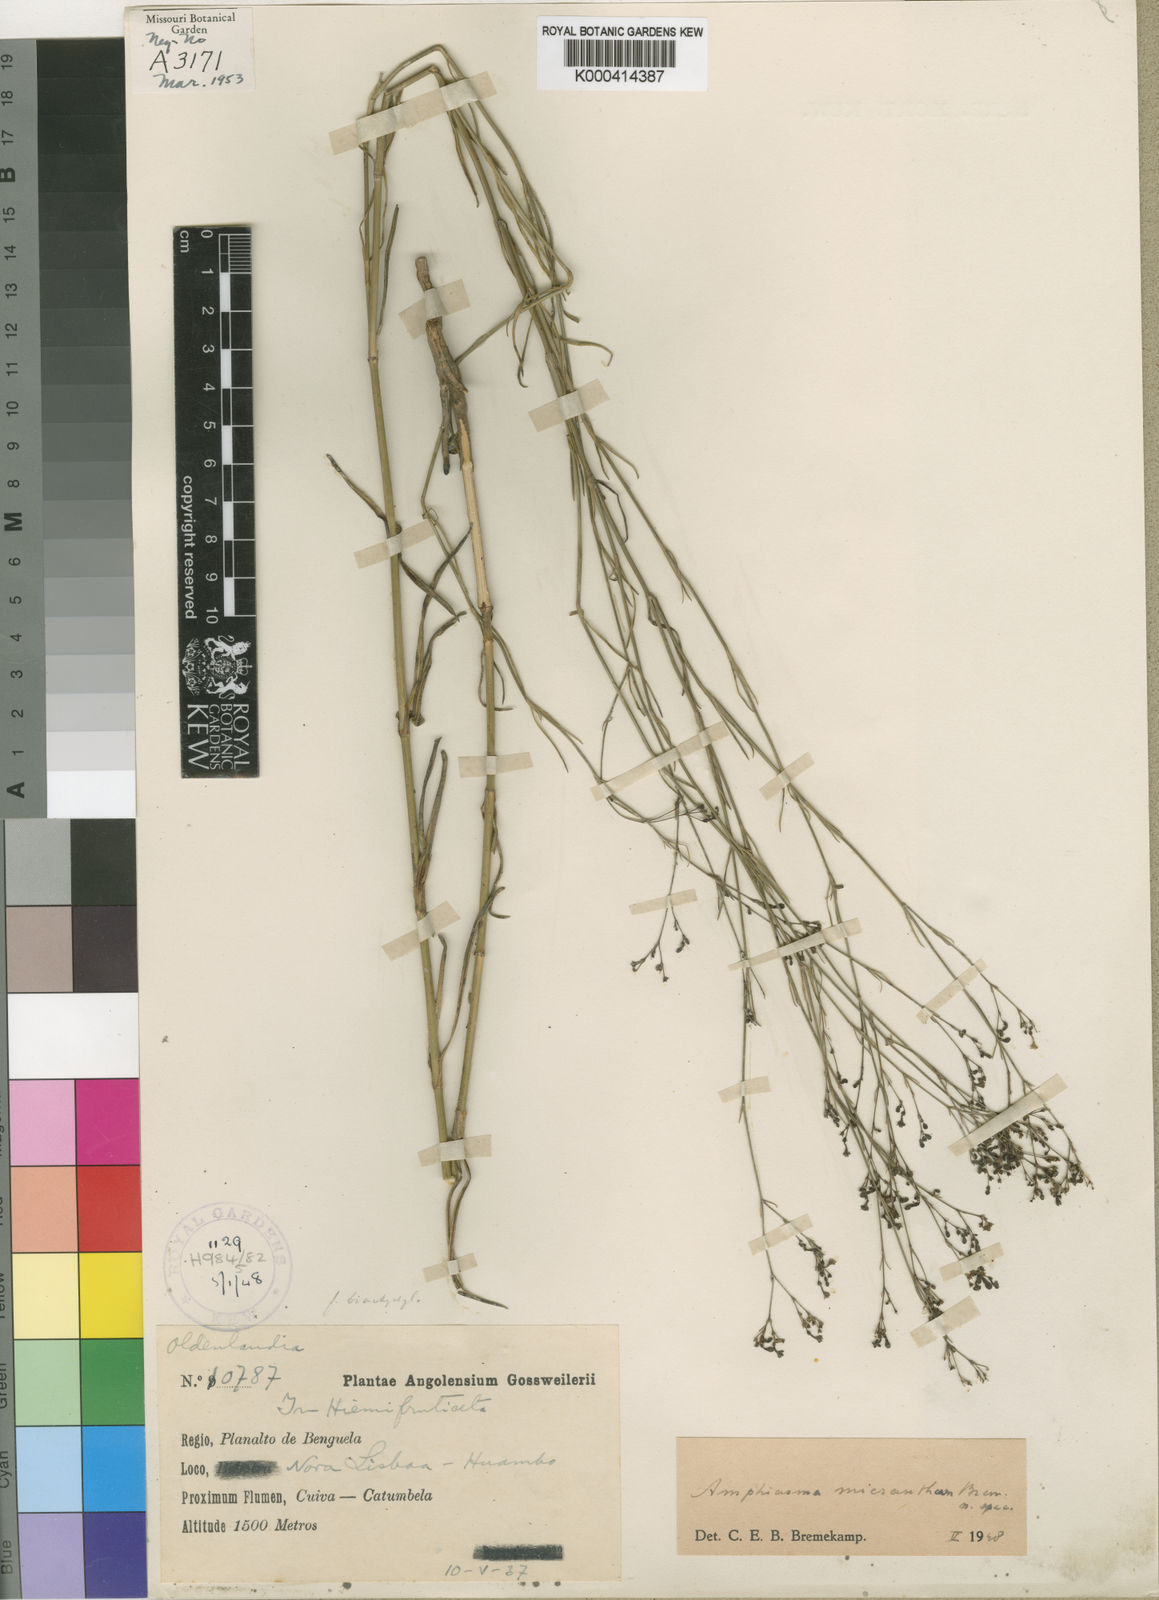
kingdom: Plantae
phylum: Tracheophyta
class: Magnoliopsida
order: Gentianales
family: Rubiaceae
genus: Amphiasma
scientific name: Amphiasma micranthum
